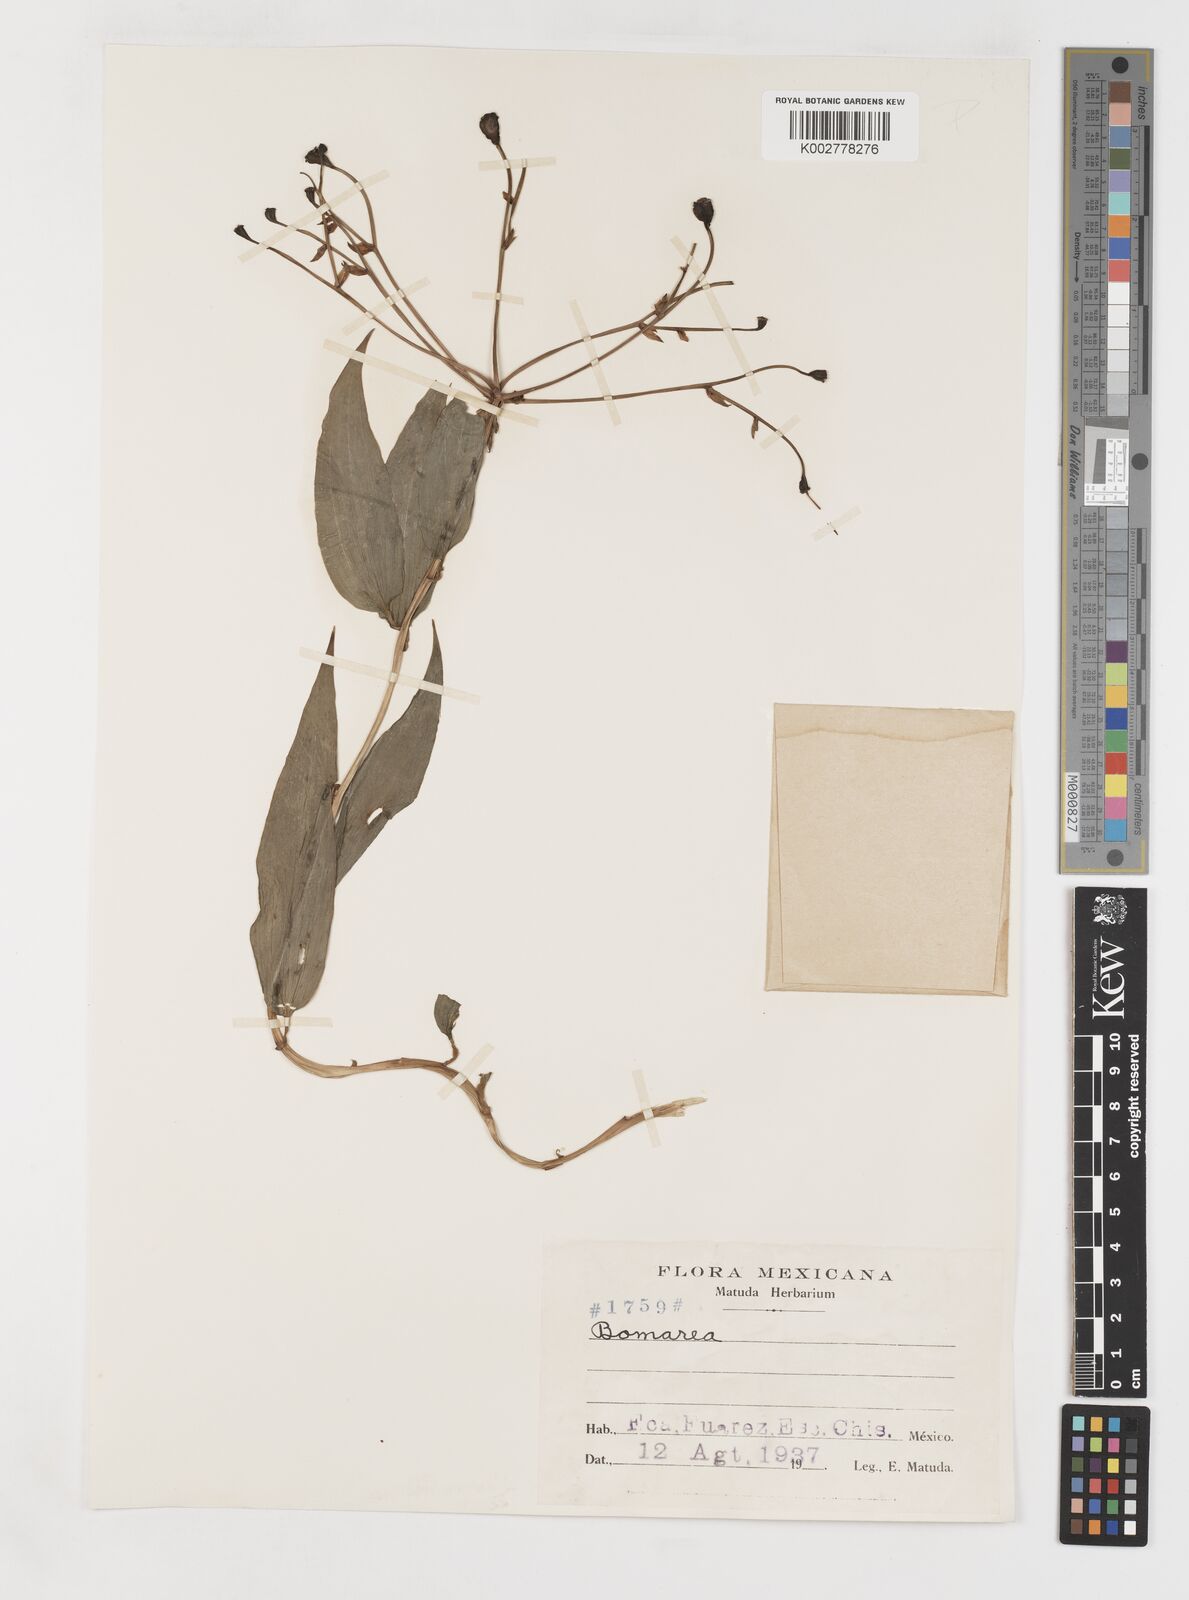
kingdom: Plantae
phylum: Tracheophyta
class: Liliopsida
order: Liliales
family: Alstroemeriaceae
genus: Bomarea
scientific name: Bomarea edulis
